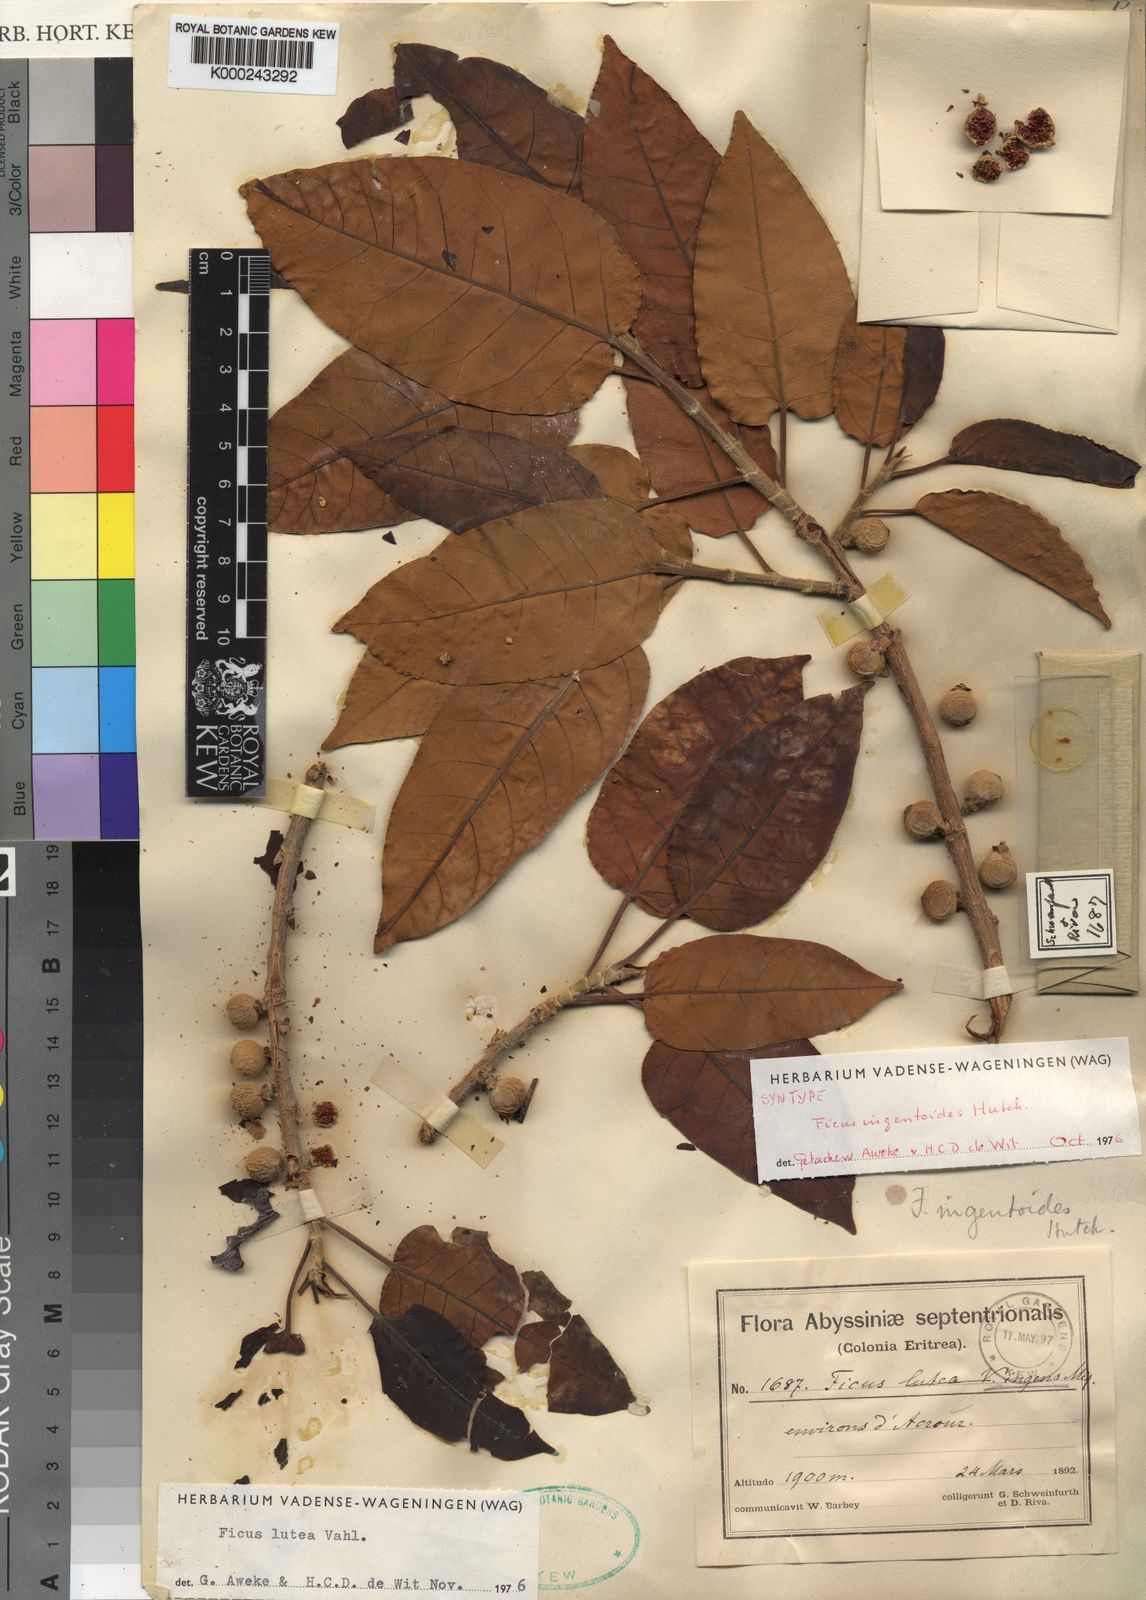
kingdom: Plantae
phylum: Tracheophyta
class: Magnoliopsida
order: Rosales
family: Moraceae
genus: Ficus
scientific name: Ficus ingens
